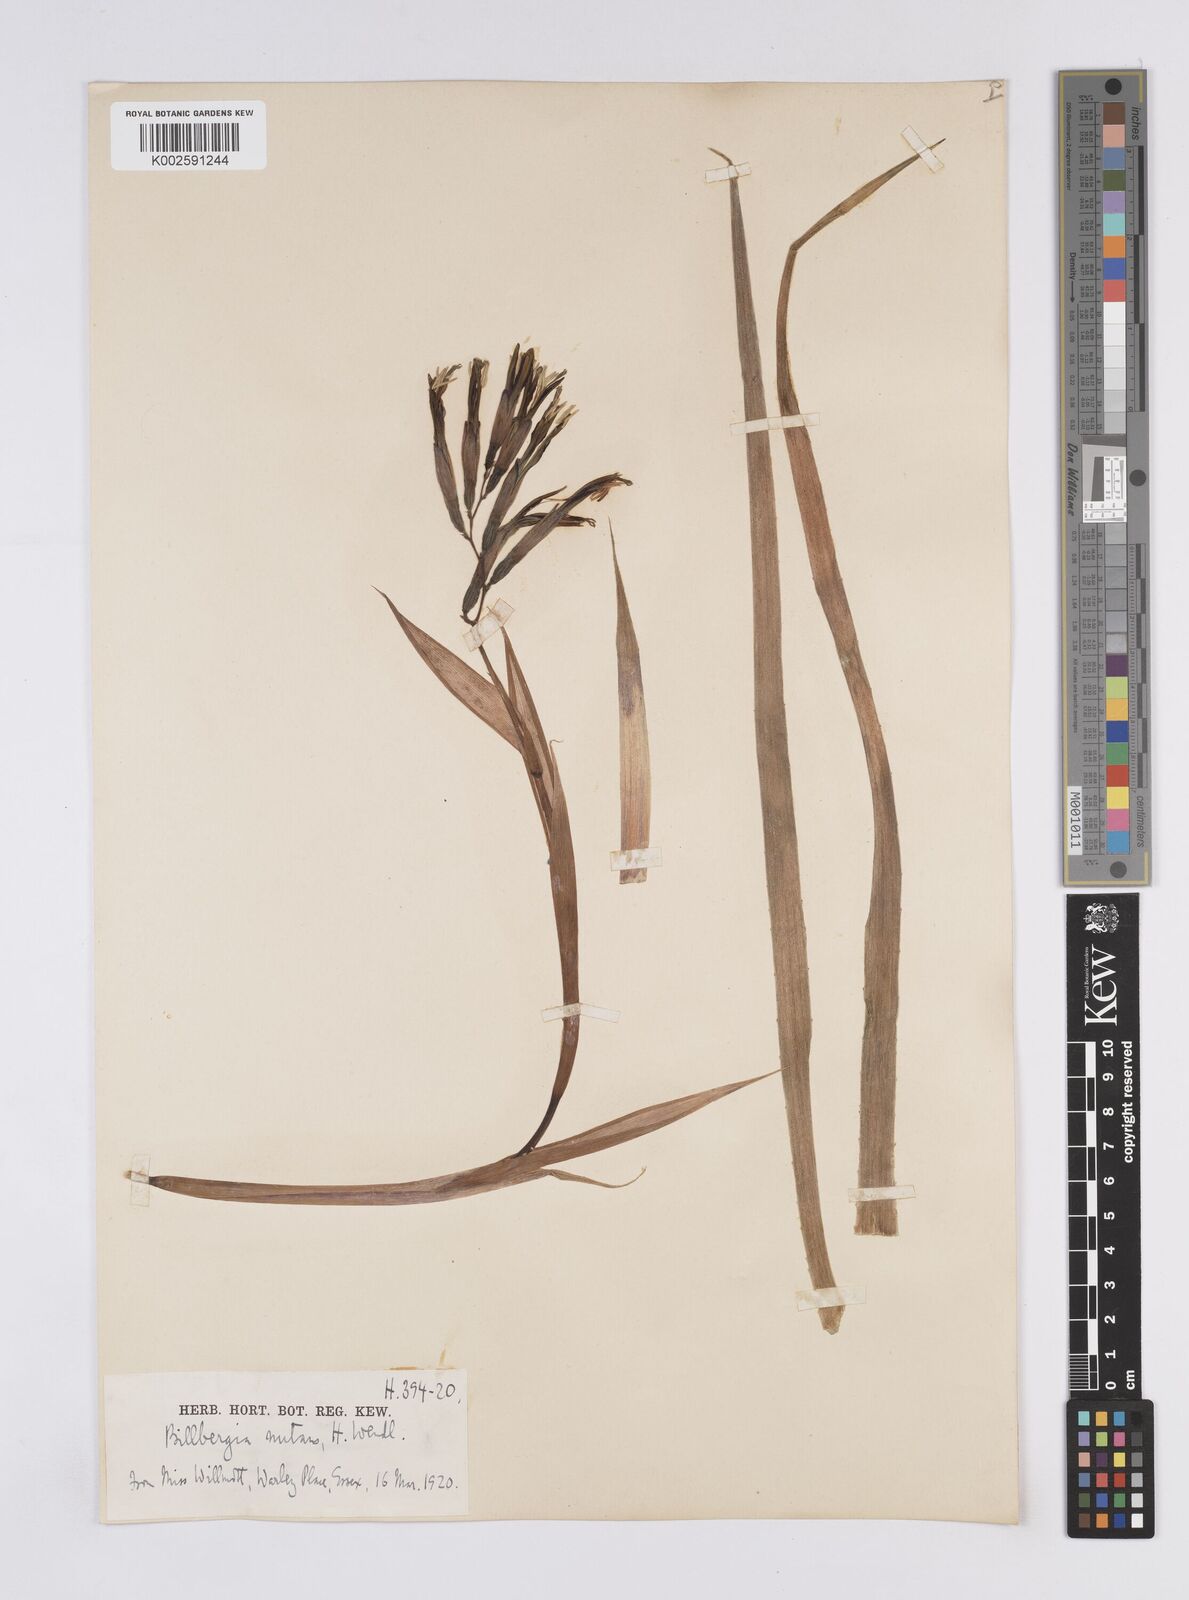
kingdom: Plantae
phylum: Tracheophyta
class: Liliopsida
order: Poales
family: Bromeliaceae
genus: Billbergia
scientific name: Billbergia nutans
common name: Friendship-plant
